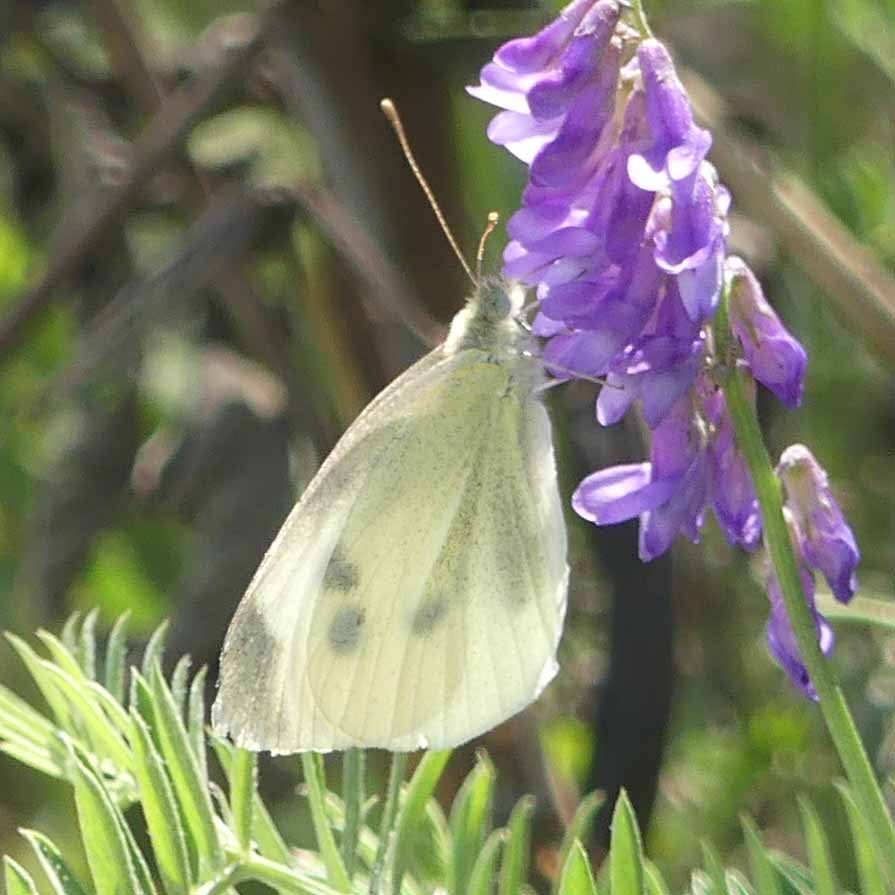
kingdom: Animalia
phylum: Arthropoda
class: Insecta
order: Lepidoptera
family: Pieridae
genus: Pieris
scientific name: Pieris rapae
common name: Cabbage White
